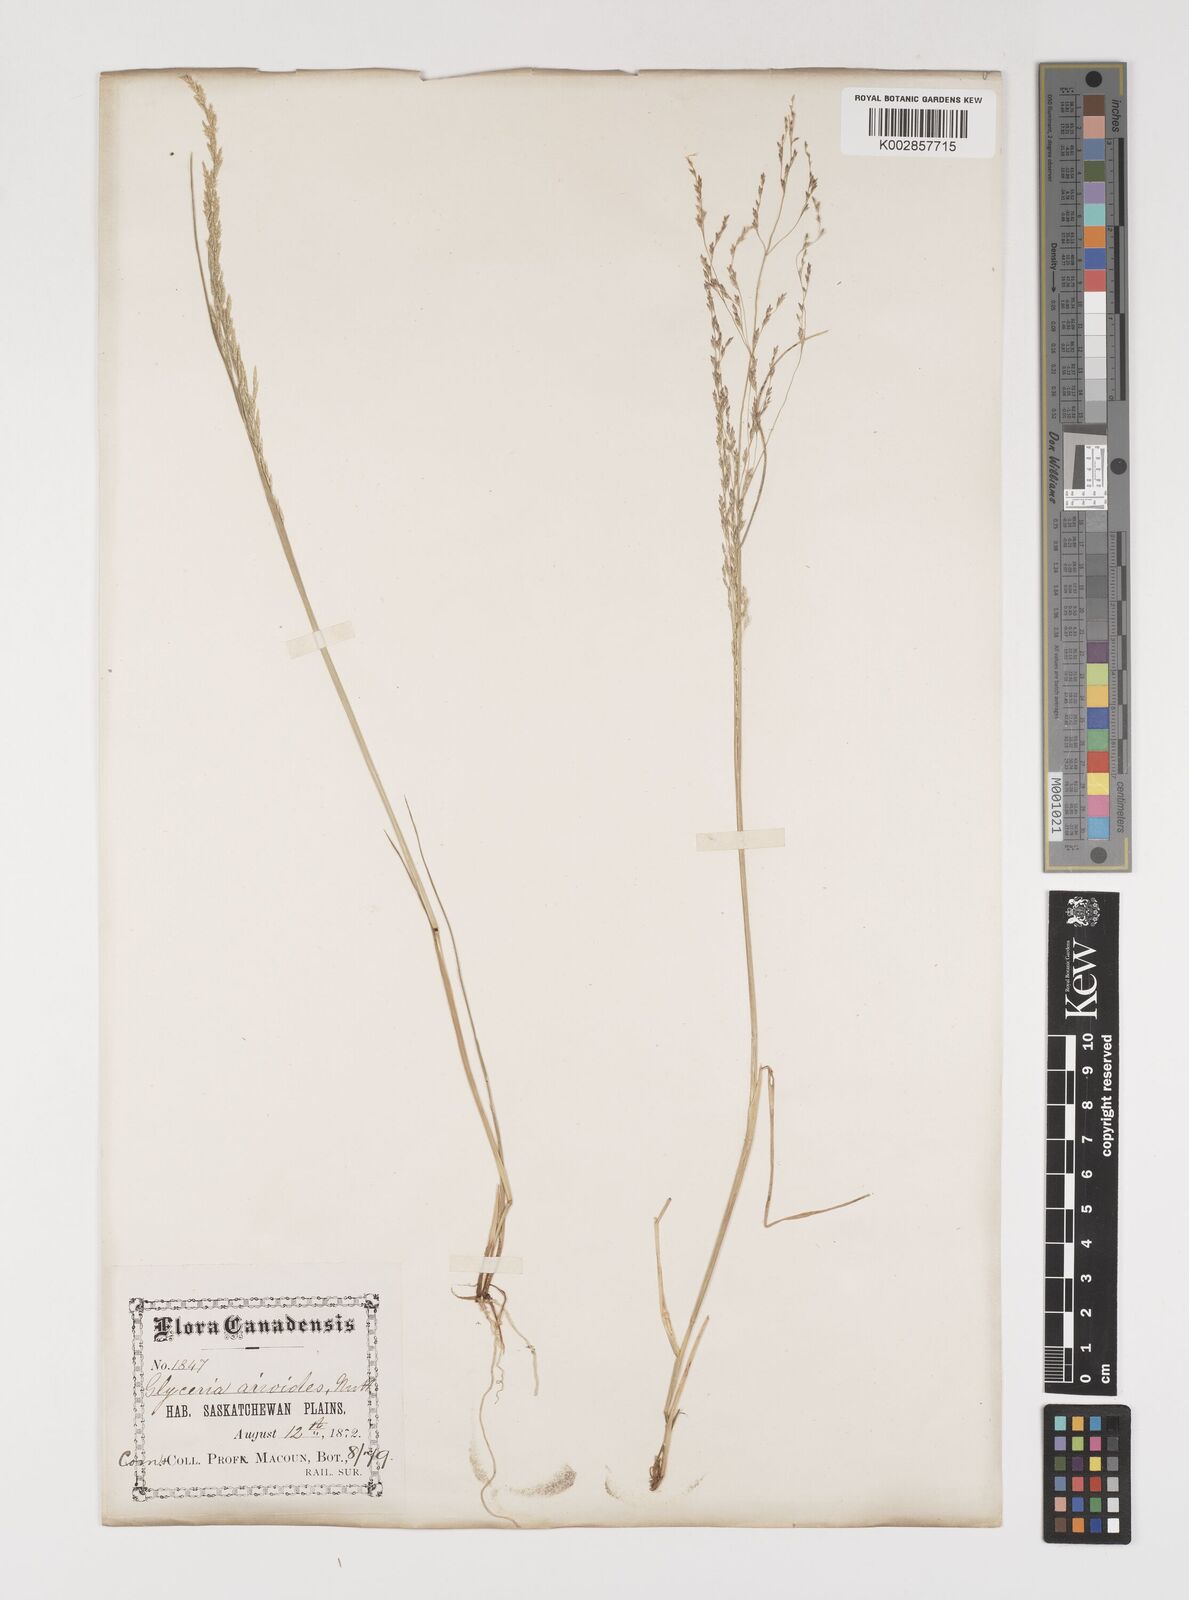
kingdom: Plantae
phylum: Tracheophyta
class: Liliopsida
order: Poales
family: Poaceae
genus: Puccinellia
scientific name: Puccinellia nuttalliana
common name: Nuttall's alkali grass
